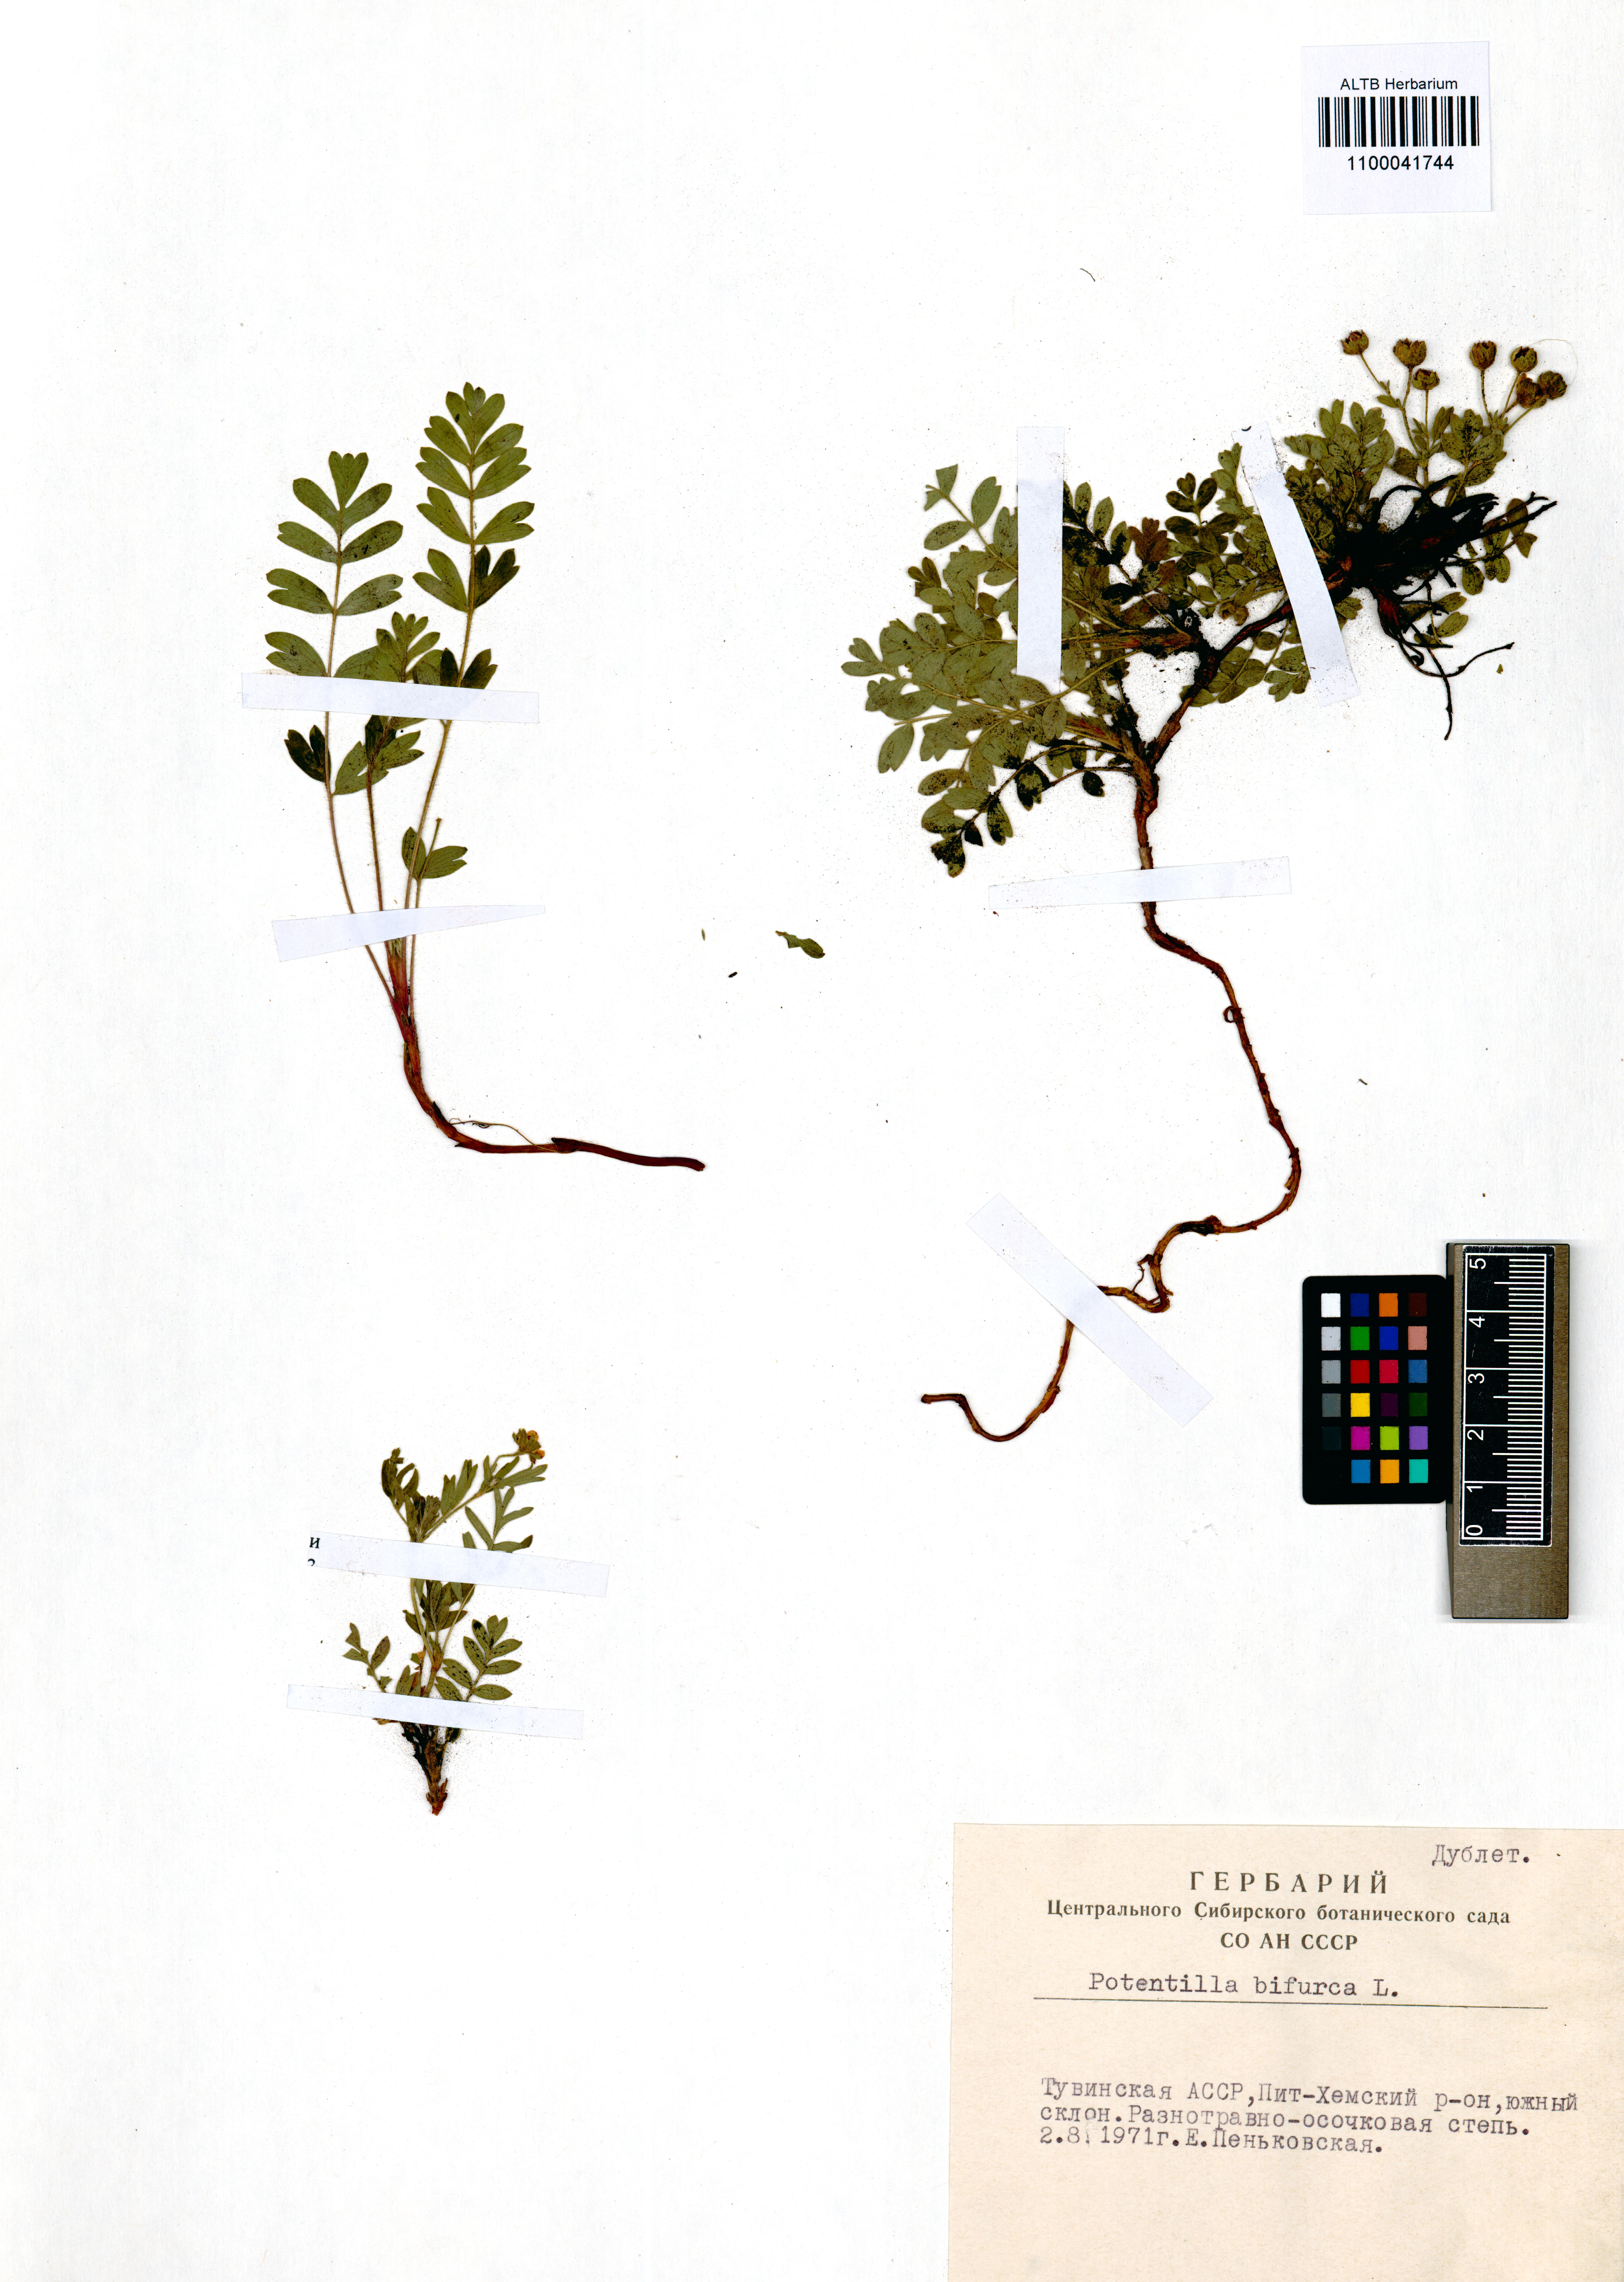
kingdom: Plantae
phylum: Tracheophyta
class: Magnoliopsida
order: Rosales
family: Rosaceae
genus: Sibbaldianthe
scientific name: Sibbaldianthe bifurca
